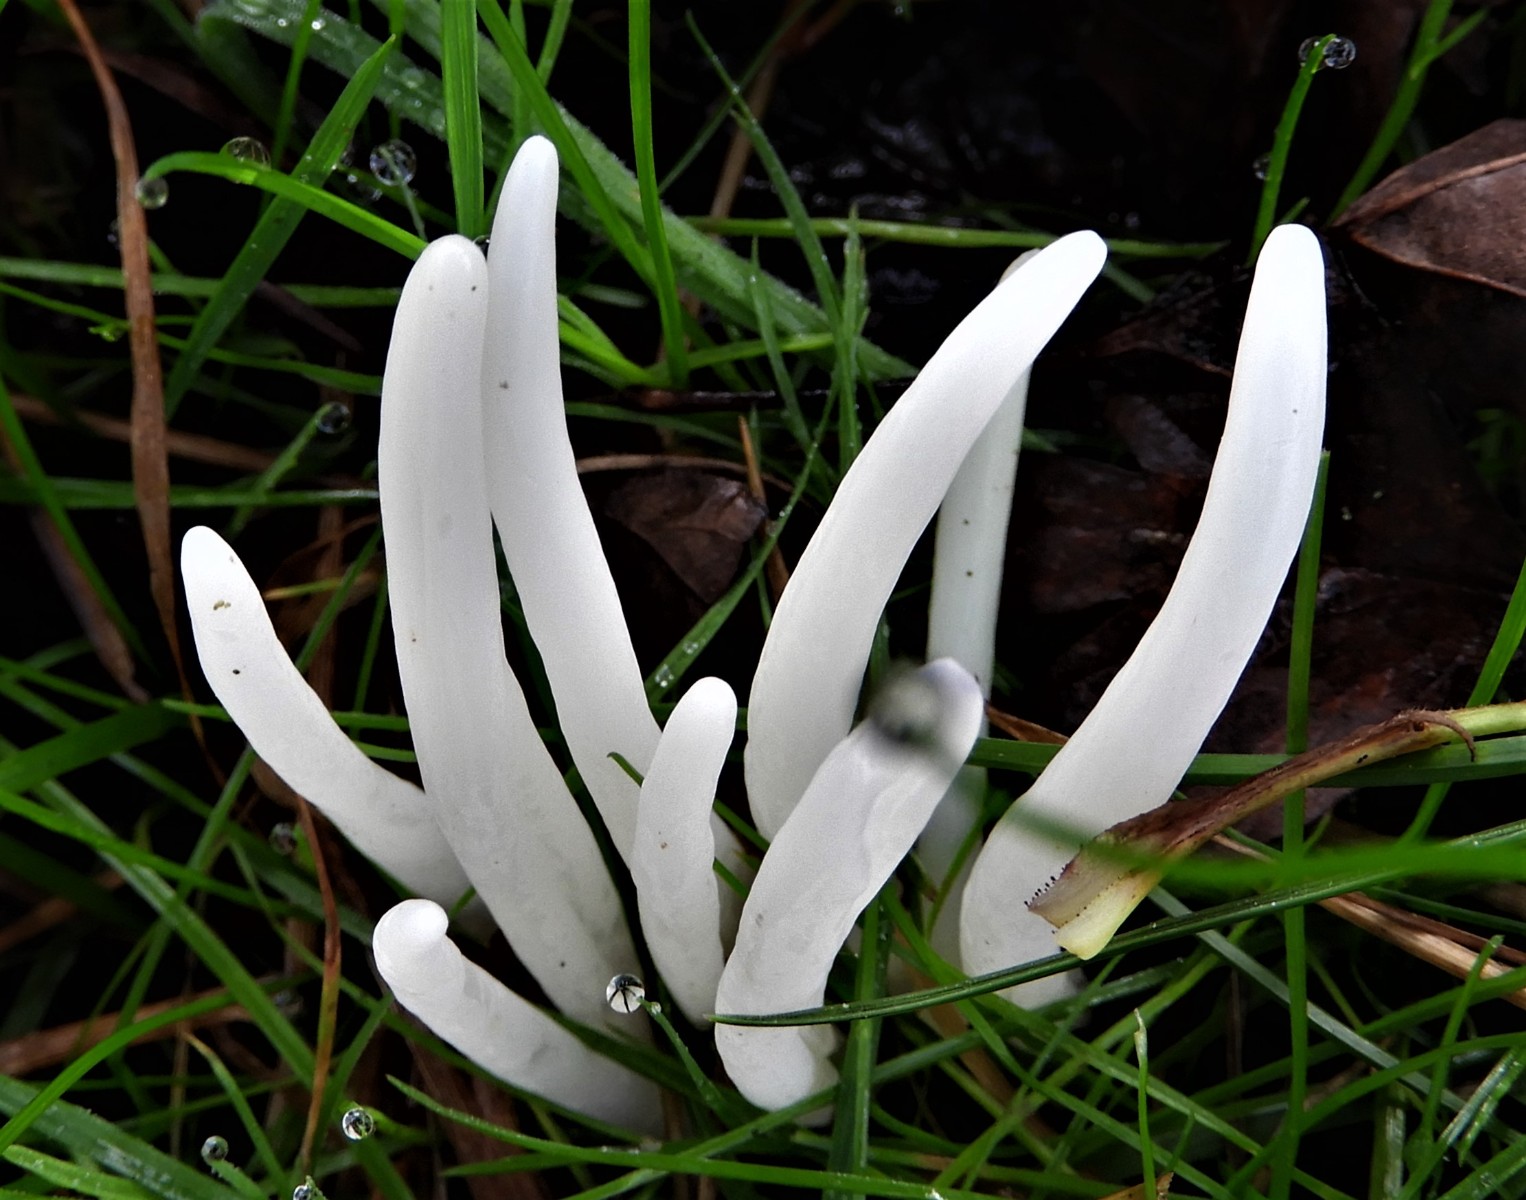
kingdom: Fungi
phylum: Basidiomycota
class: Agaricomycetes
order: Agaricales
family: Clavariaceae
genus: Clavaria
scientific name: Clavaria fragilis
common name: bugtet køllesvamp
